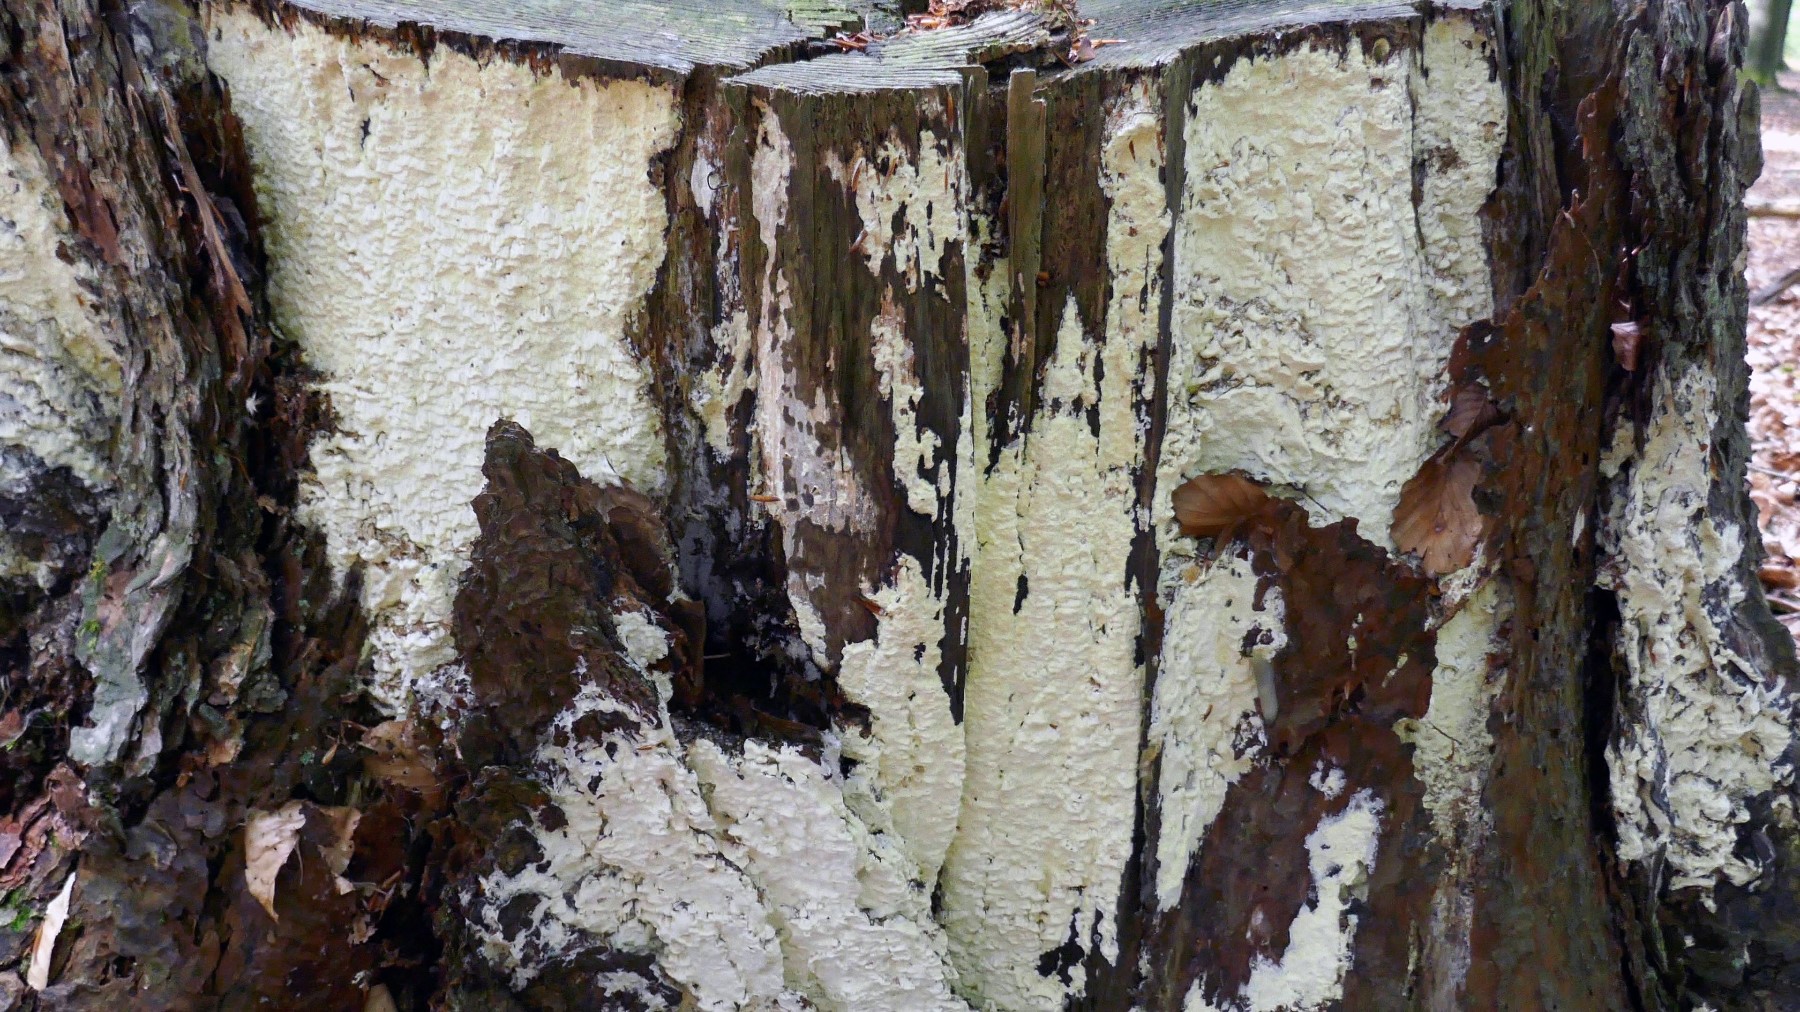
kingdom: Fungi
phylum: Basidiomycota
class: Agaricomycetes
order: Polyporales
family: Fomitopsidaceae
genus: Daedalea
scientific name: Daedalea xantha
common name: gul sejporesvamp
